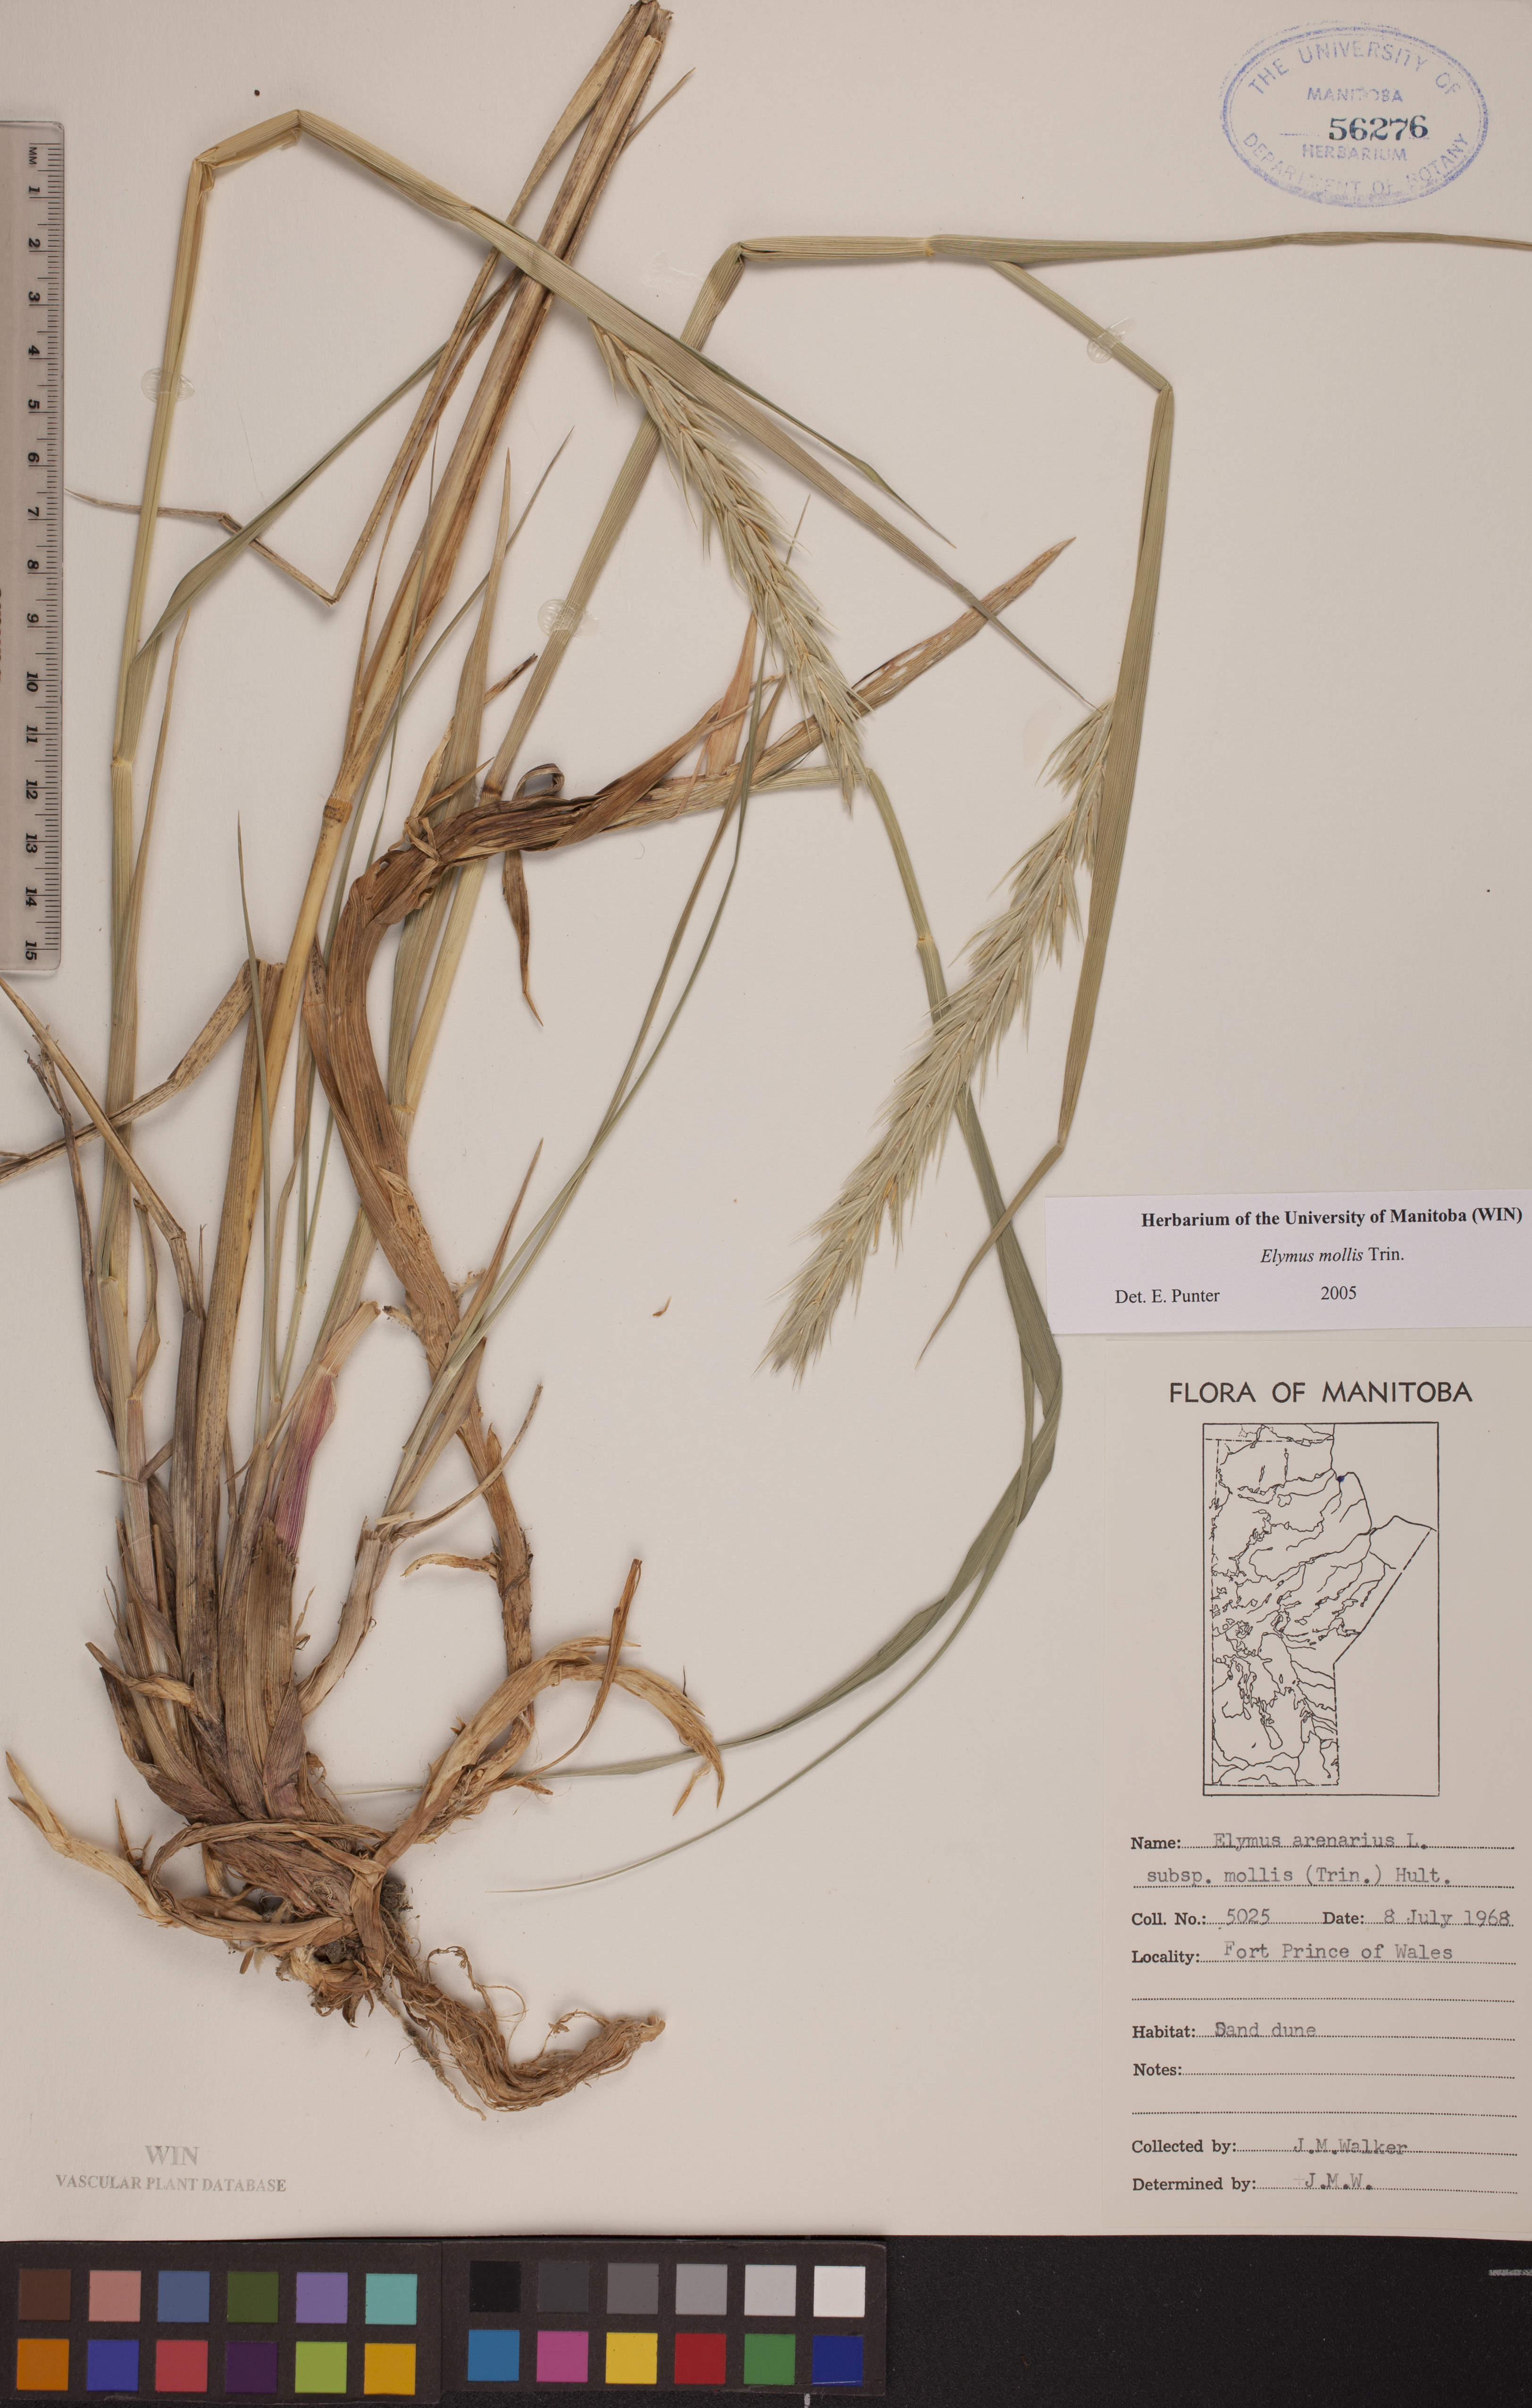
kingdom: Plantae
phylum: Tracheophyta
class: Liliopsida
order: Poales
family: Poaceae
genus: Leymus
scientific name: Leymus mollis
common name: American dune grass
